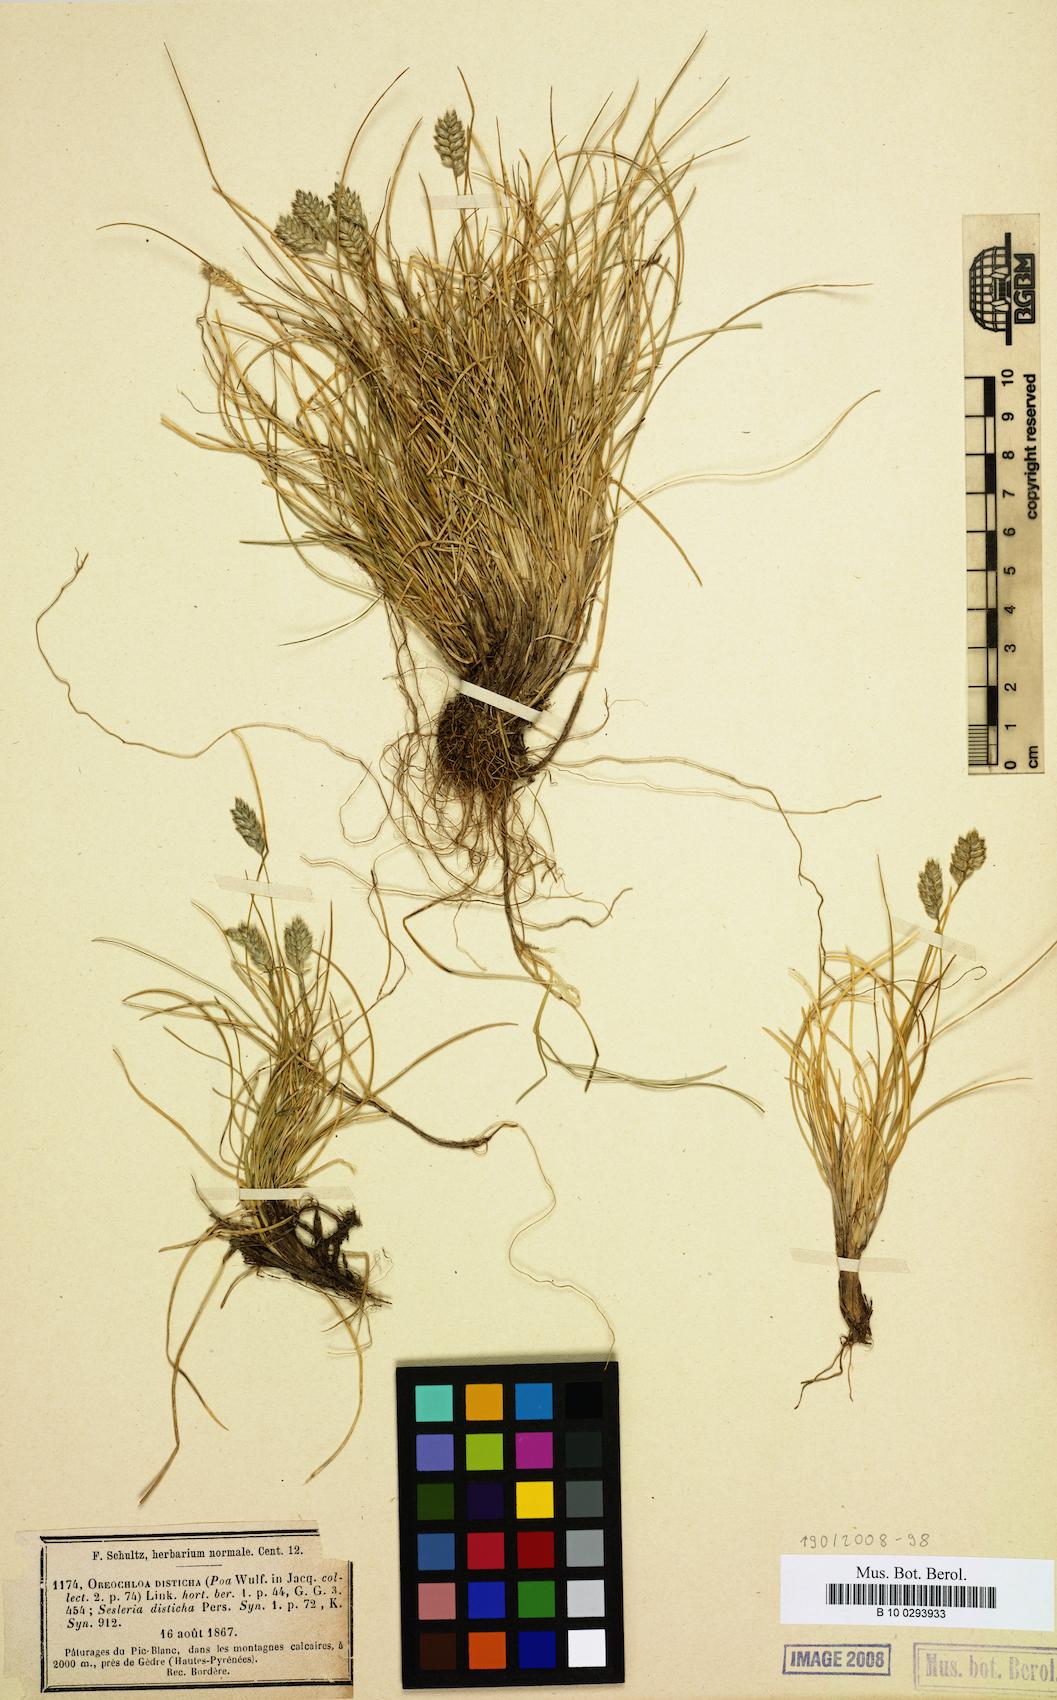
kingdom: Plantae
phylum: Tracheophyta
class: Liliopsida
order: Poales
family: Poaceae
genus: Oreochloa
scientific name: Oreochloa disticha
